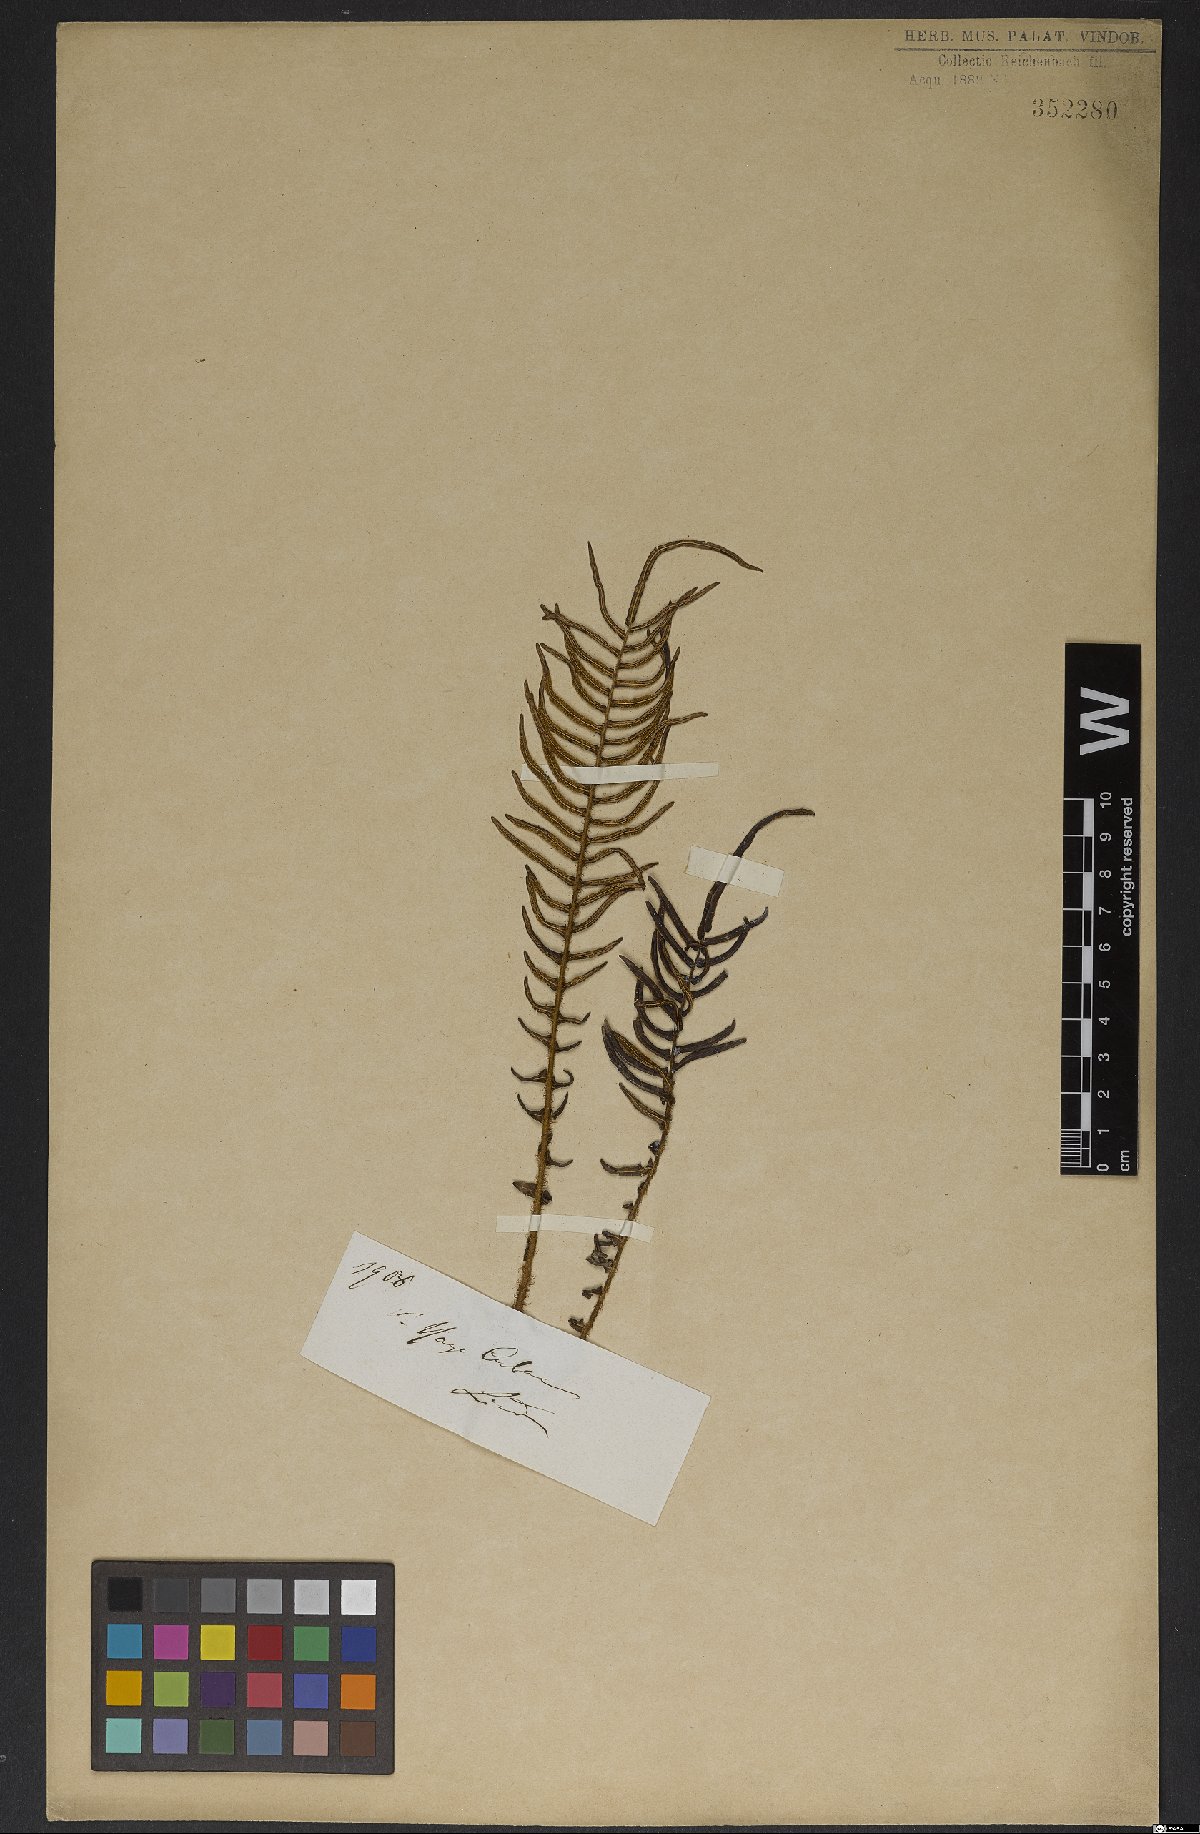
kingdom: Plantae
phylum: Tracheophyta
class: Polypodiopsida
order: Polypodiales
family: Blechnaceae
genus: Blechnum
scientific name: Blechnum
